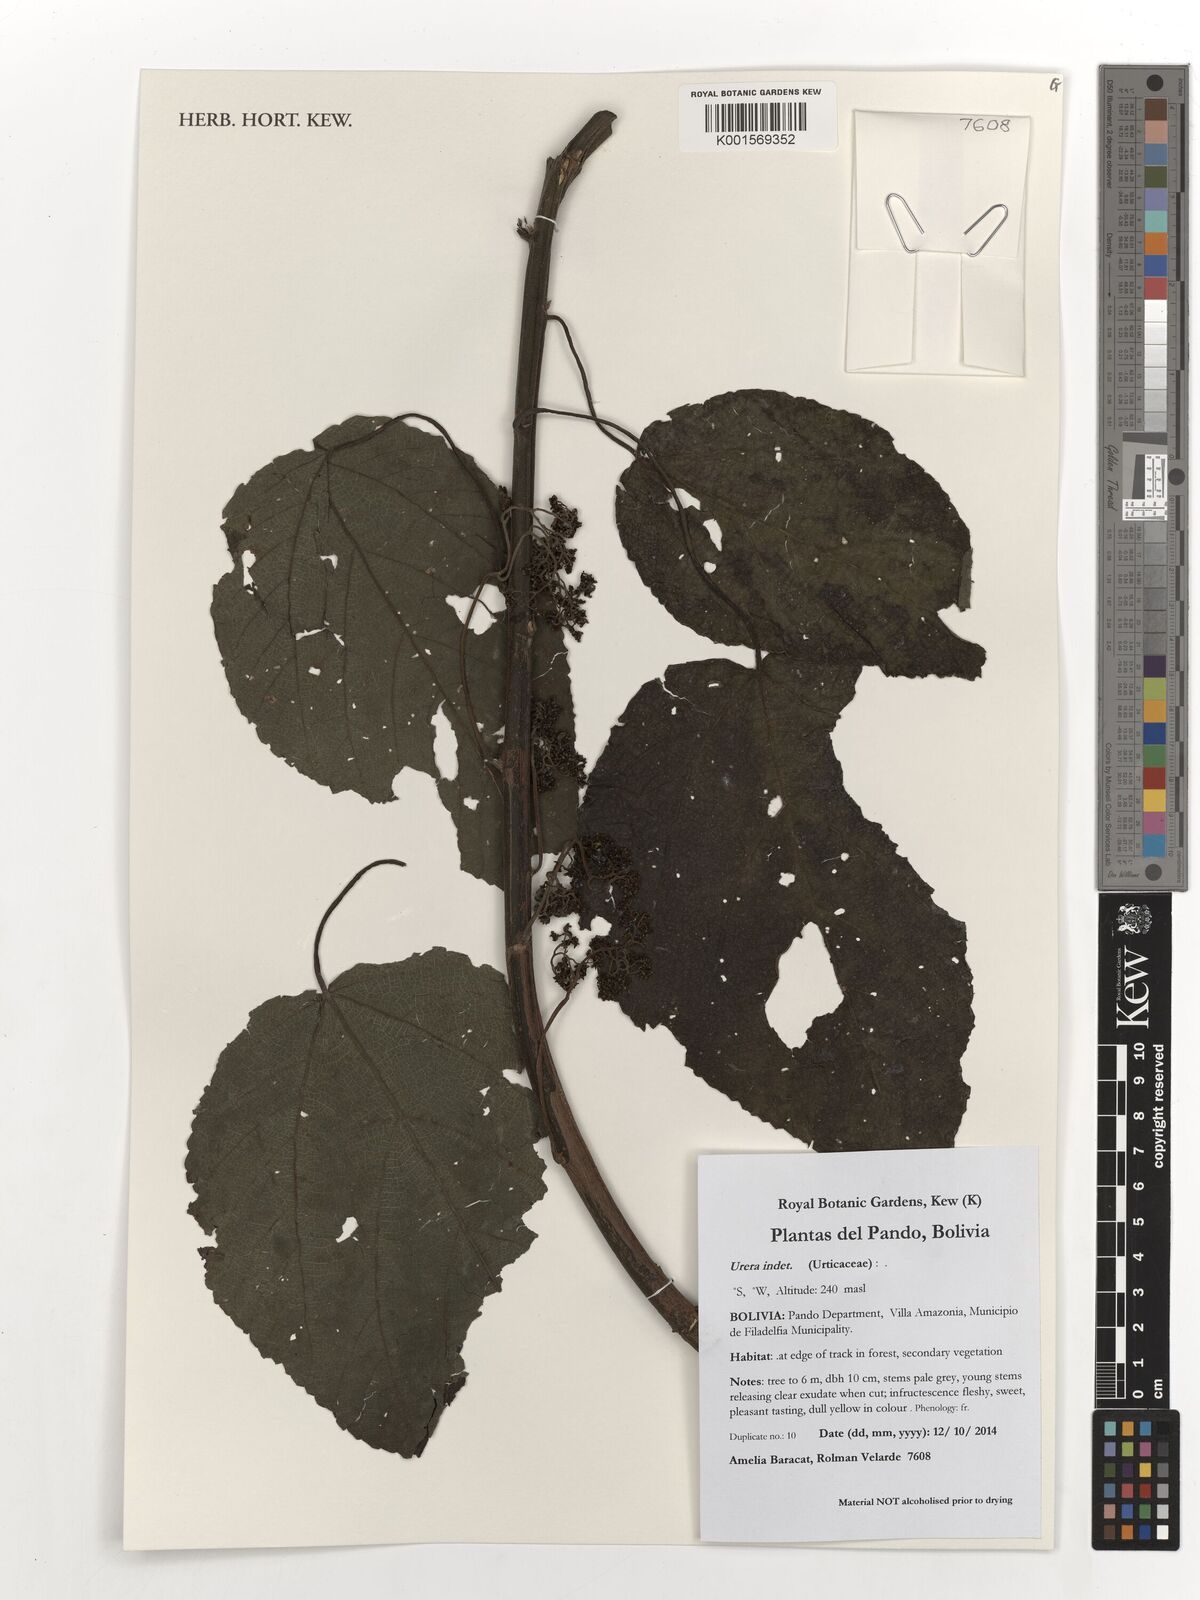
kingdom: Plantae
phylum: Tracheophyta
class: Magnoliopsida
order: Rosales
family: Urticaceae
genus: Urera
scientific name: Urera
